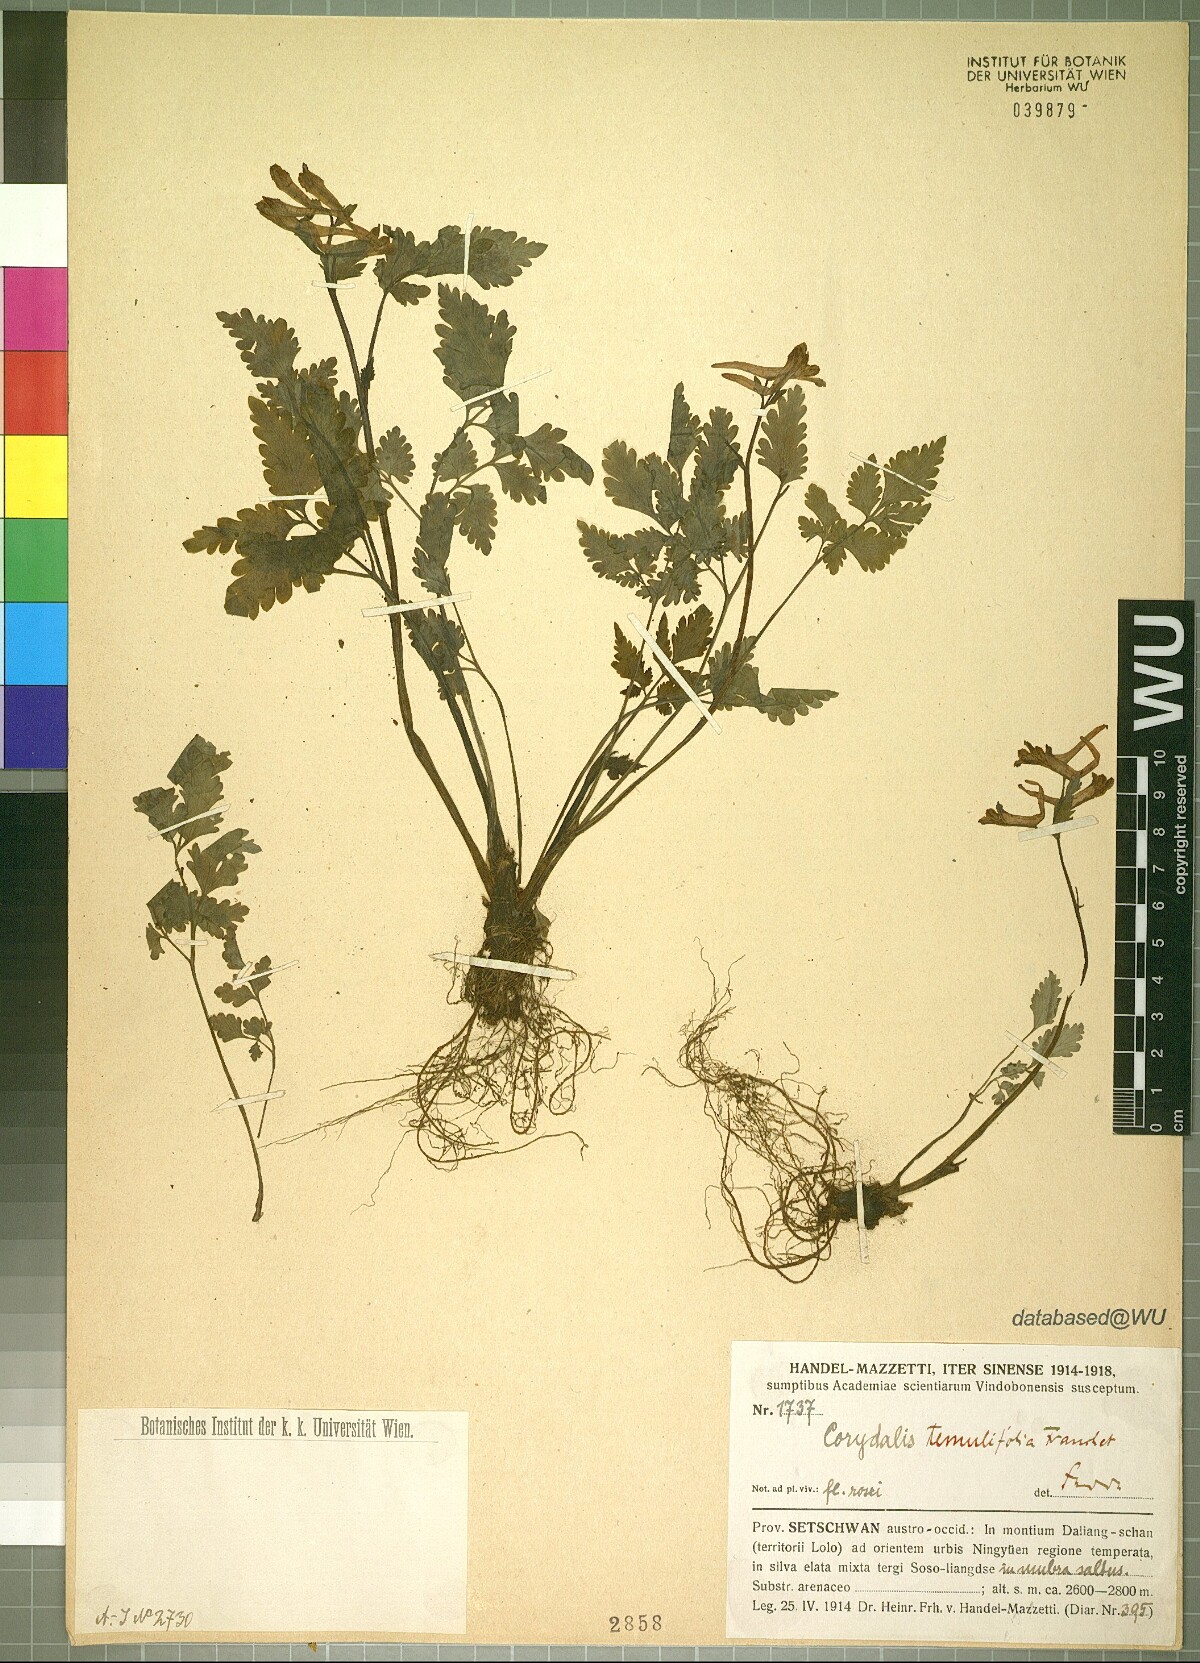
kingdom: Plantae
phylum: Tracheophyta
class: Magnoliopsida
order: Ranunculales
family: Papaveraceae
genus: Corydalis
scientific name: Corydalis temulifolia
